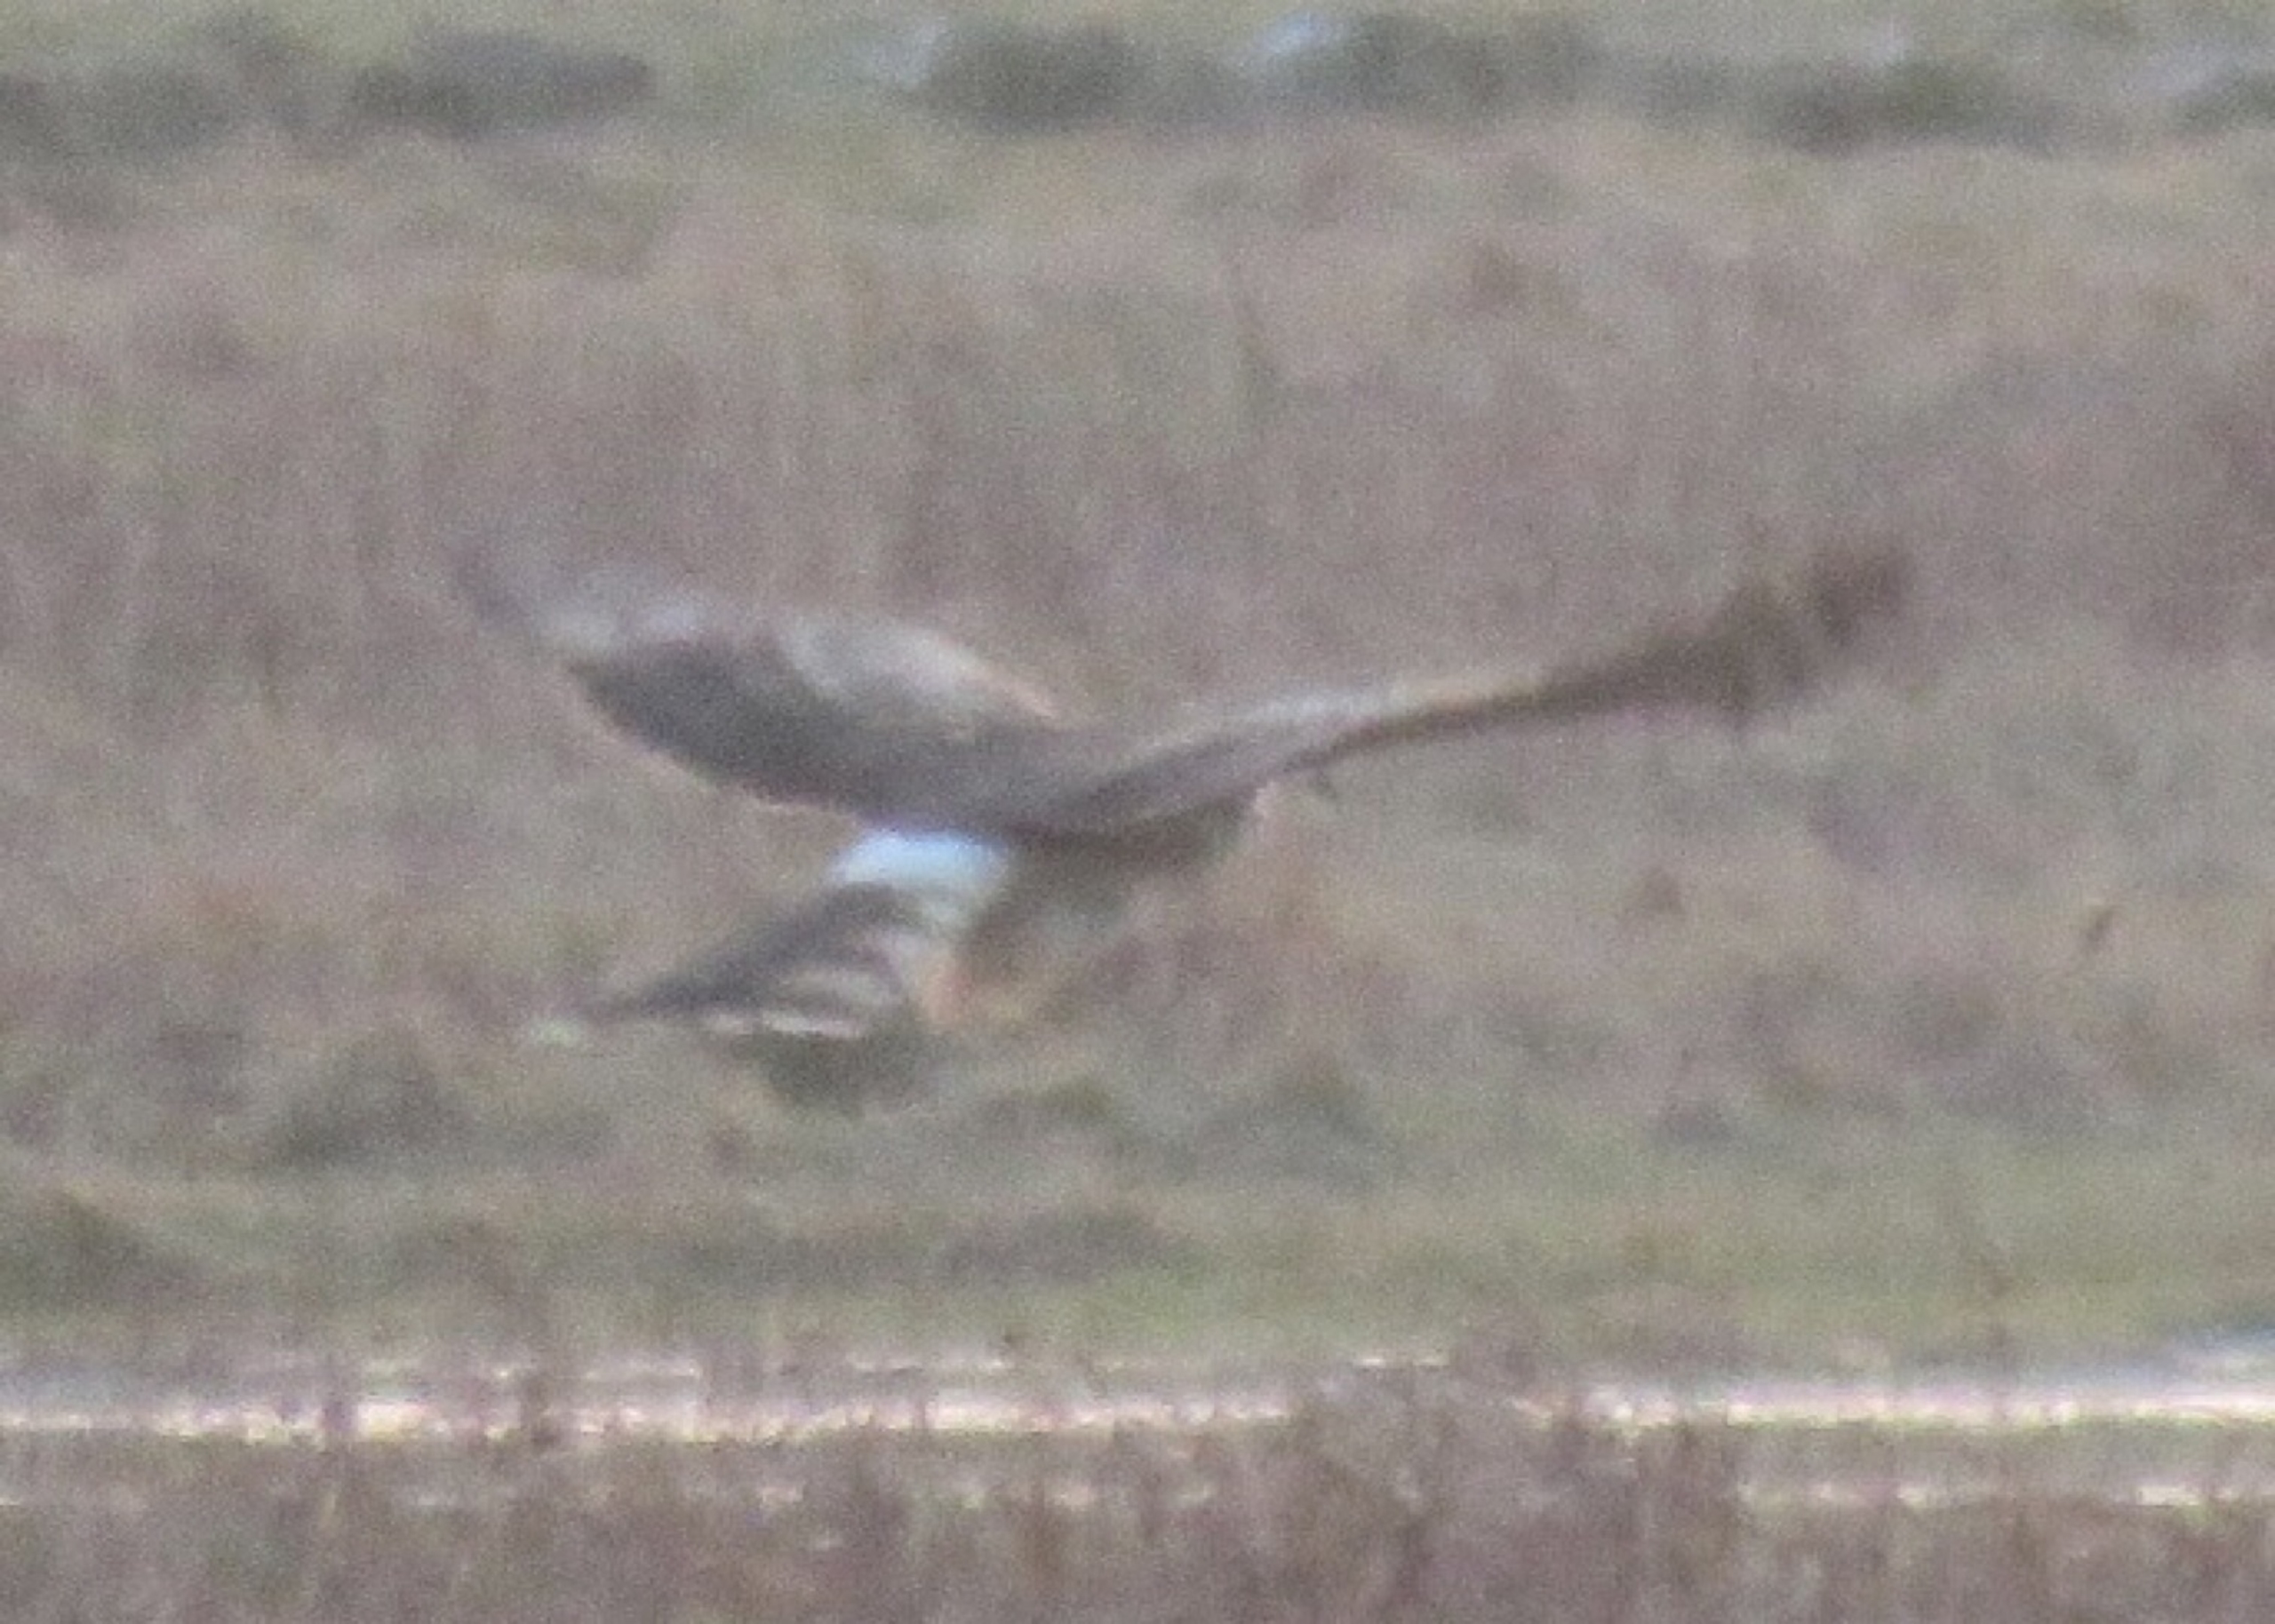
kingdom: Animalia
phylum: Chordata
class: Aves
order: Accipitriformes
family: Accipitridae
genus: Circus
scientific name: Circus cyaneus
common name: Blå kærhøg
